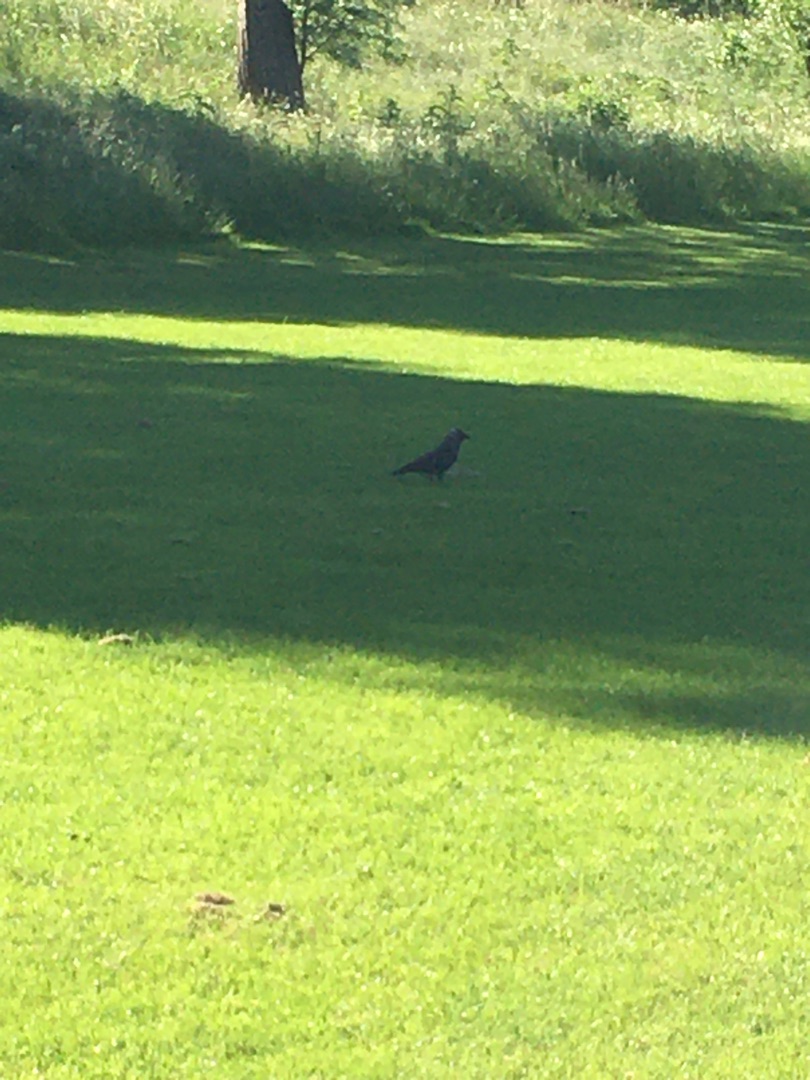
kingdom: Animalia
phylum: Chordata
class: Aves
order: Passeriformes
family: Corvidae
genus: Coloeus
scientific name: Coloeus monedula
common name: Allike
